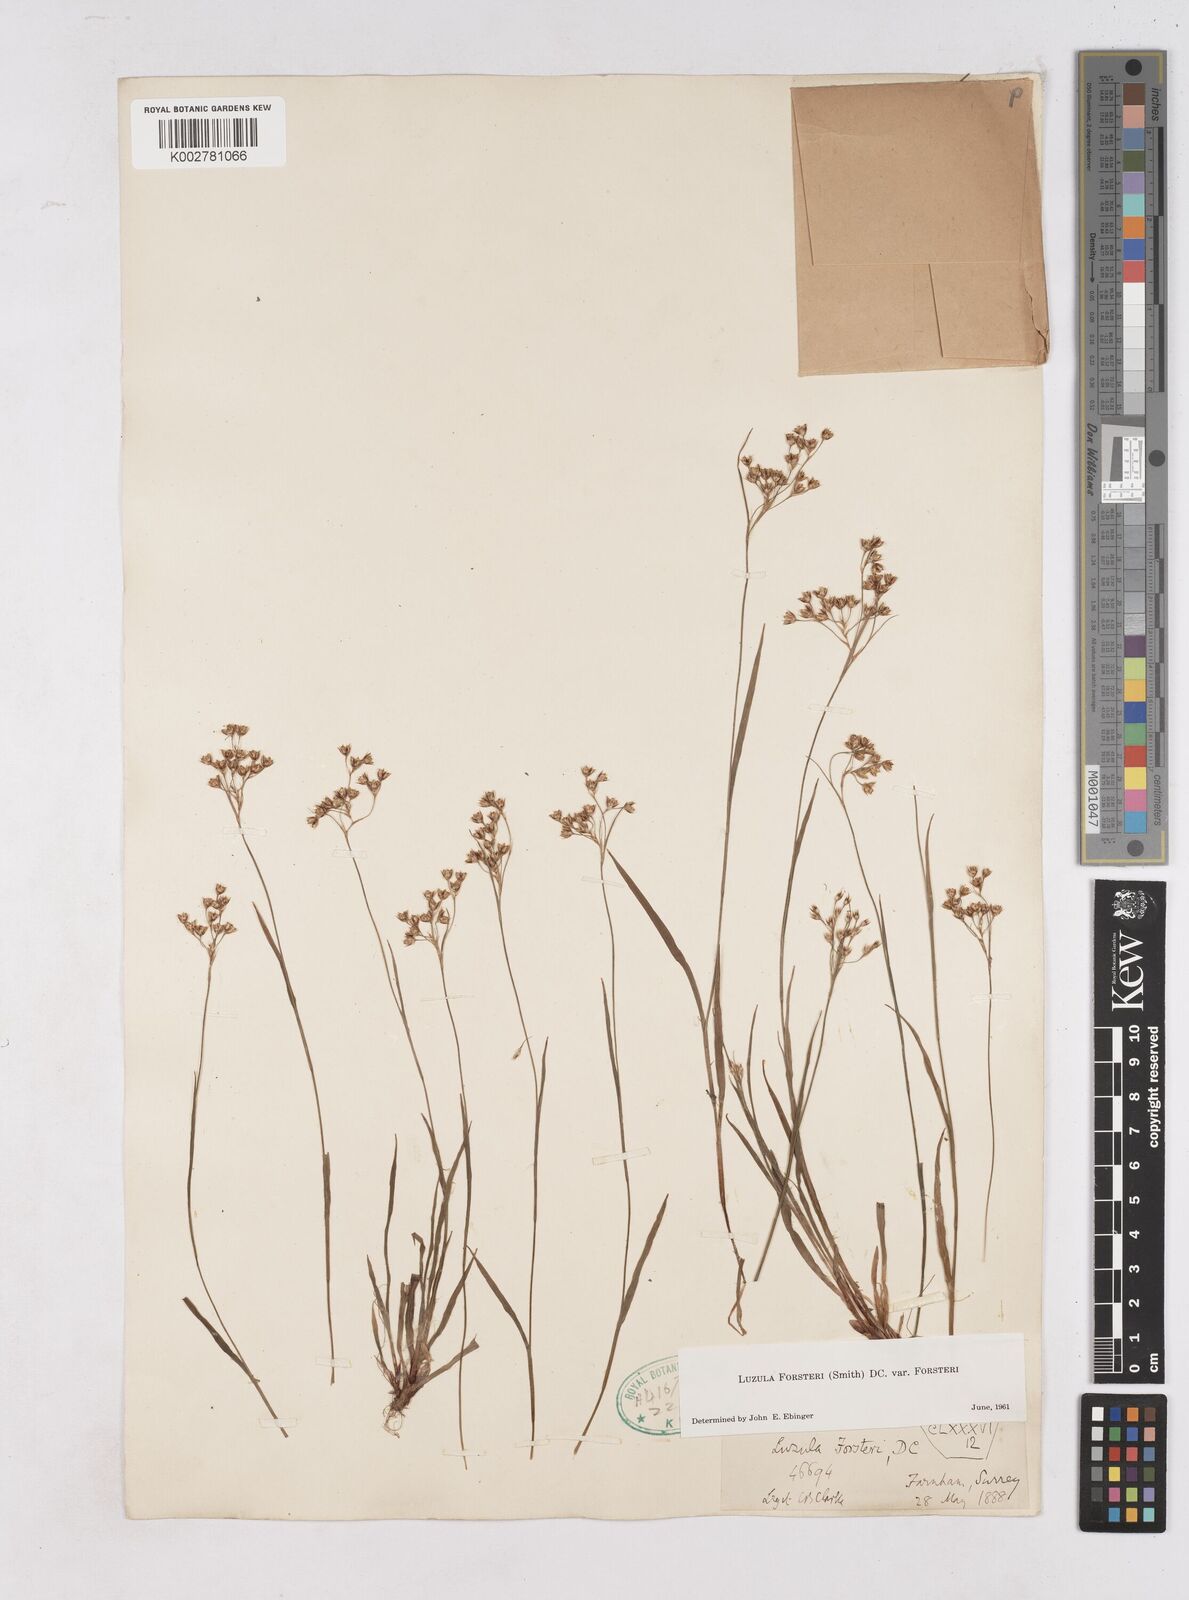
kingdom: Plantae
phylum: Tracheophyta
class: Liliopsida
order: Poales
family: Juncaceae
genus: Luzula
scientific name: Luzula forsteri
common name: Southern wood-rush
